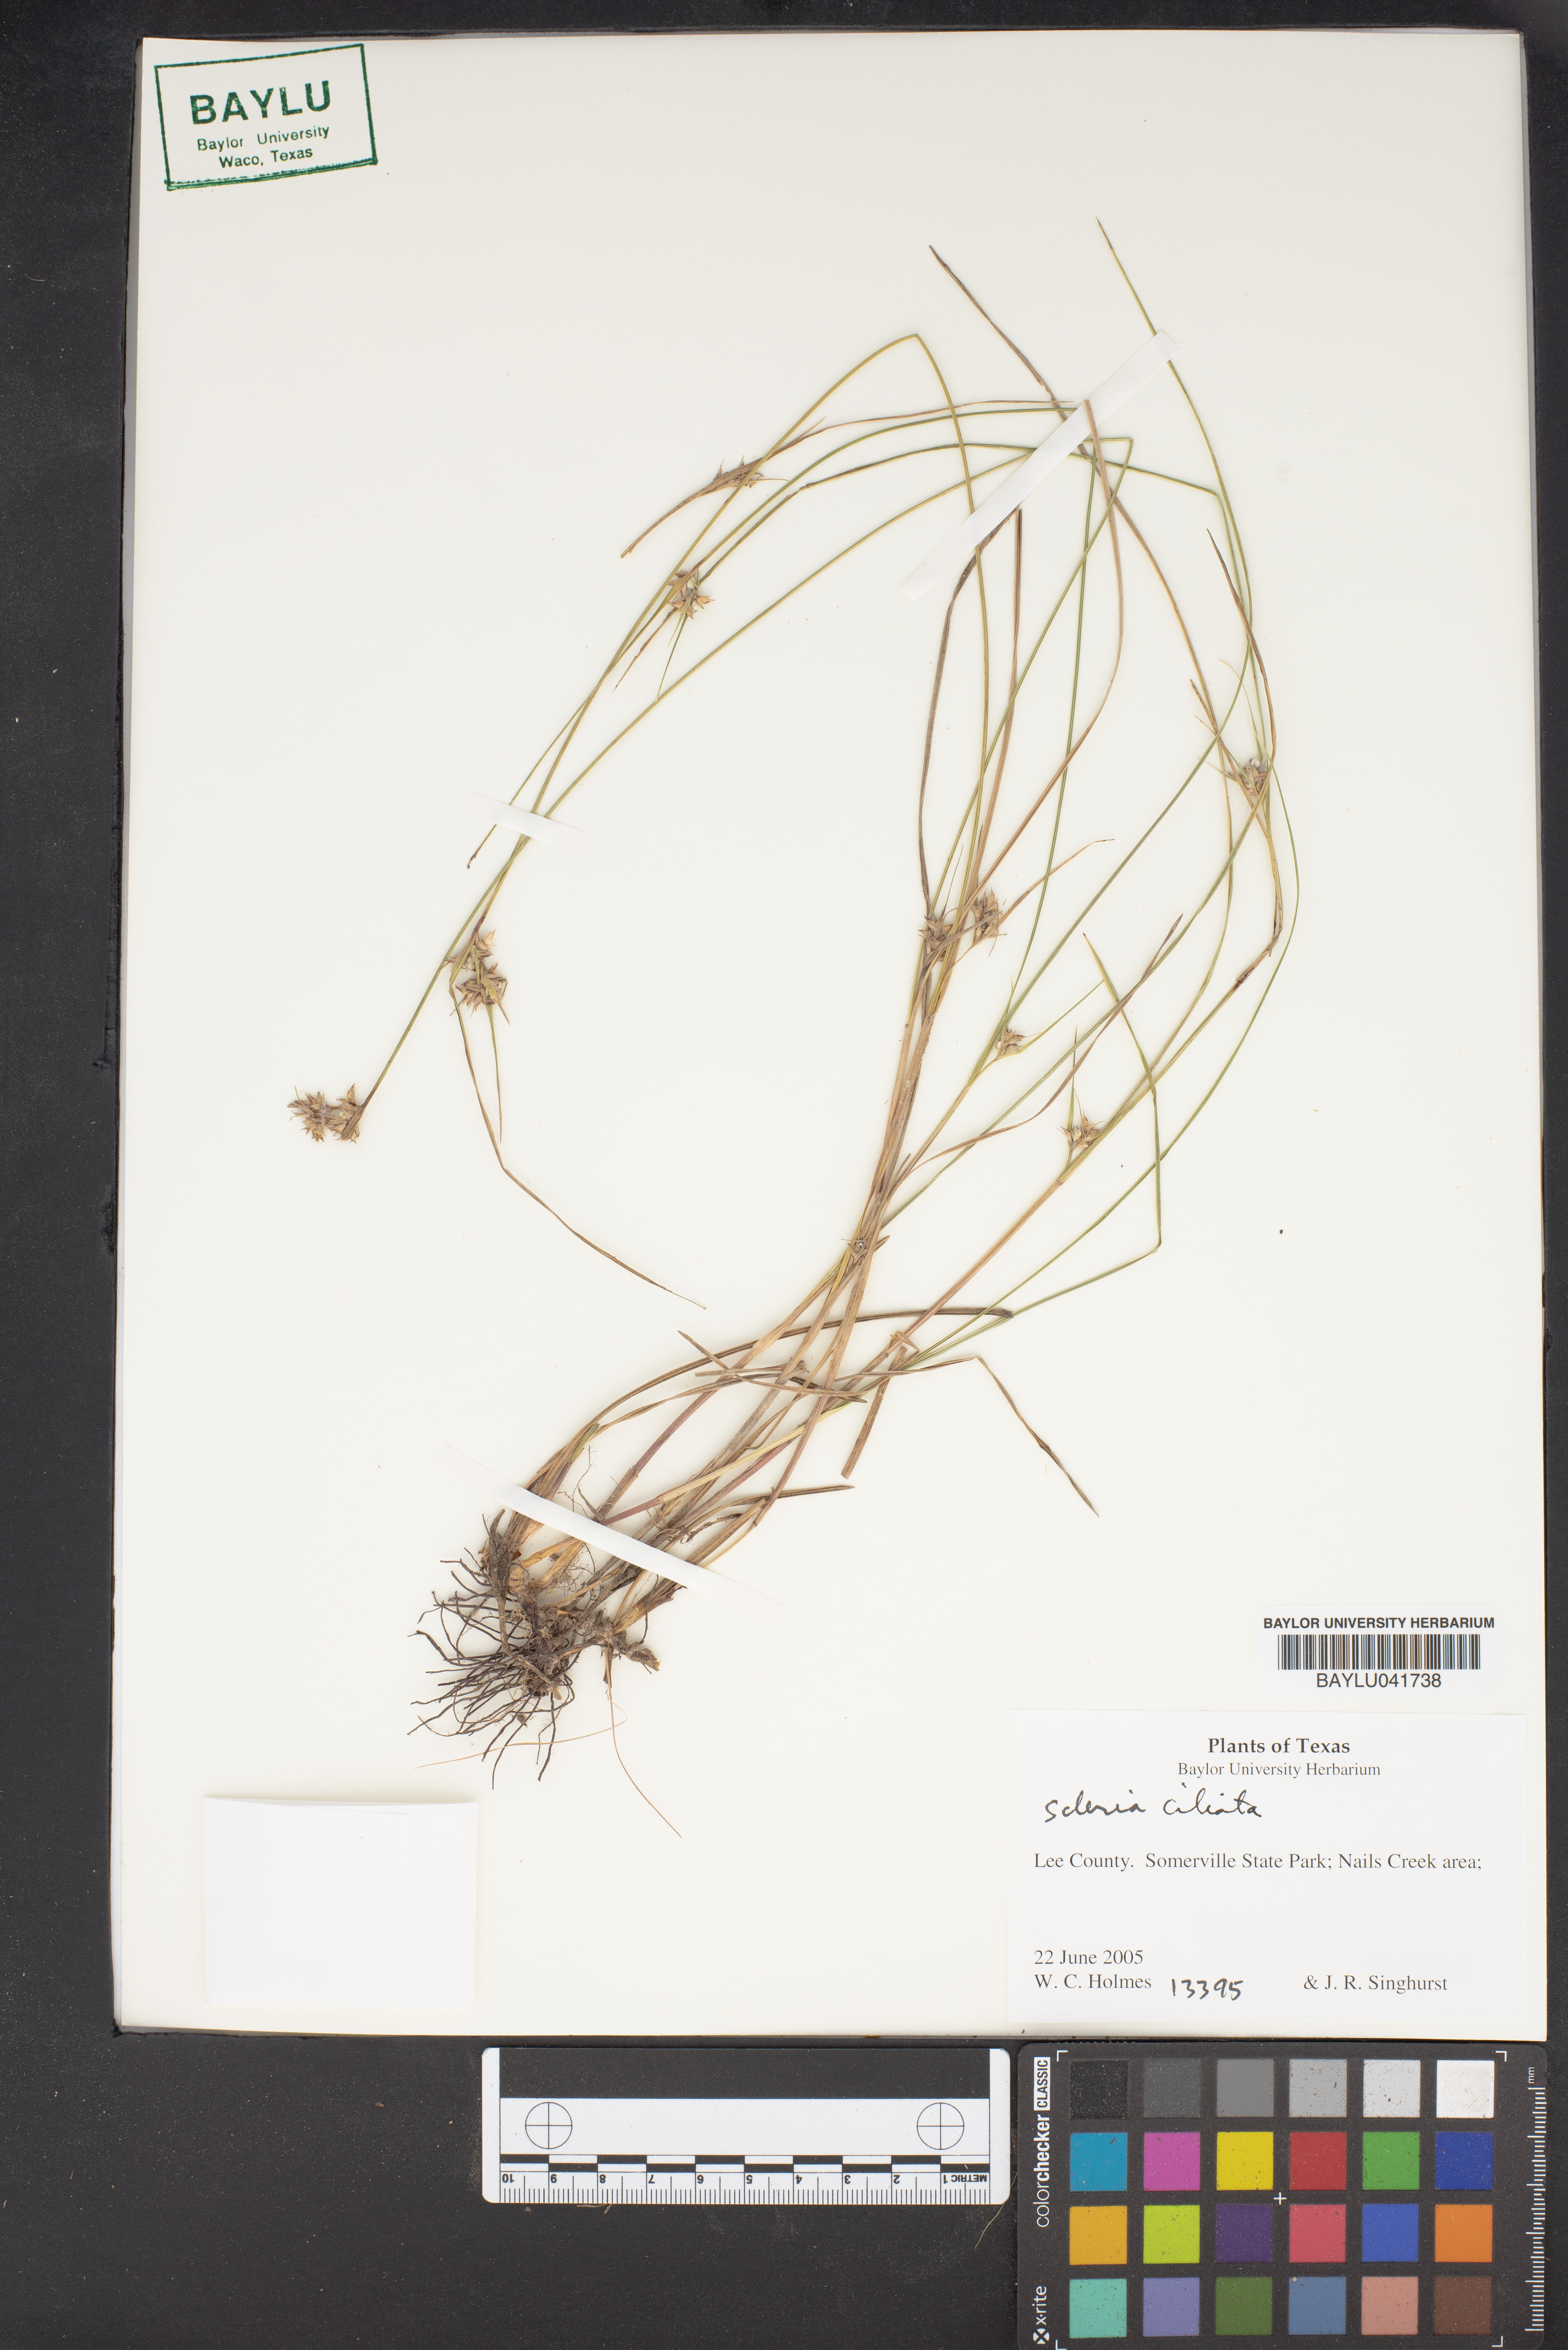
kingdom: Plantae
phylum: Tracheophyta
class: Liliopsida
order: Poales
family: Cyperaceae
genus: Scleria
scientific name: Scleria ciliata
